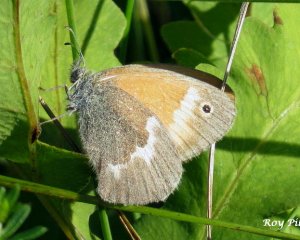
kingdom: Animalia
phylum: Arthropoda
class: Insecta
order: Lepidoptera
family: Nymphalidae
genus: Coenonympha
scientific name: Coenonympha tullia
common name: Large Heath
